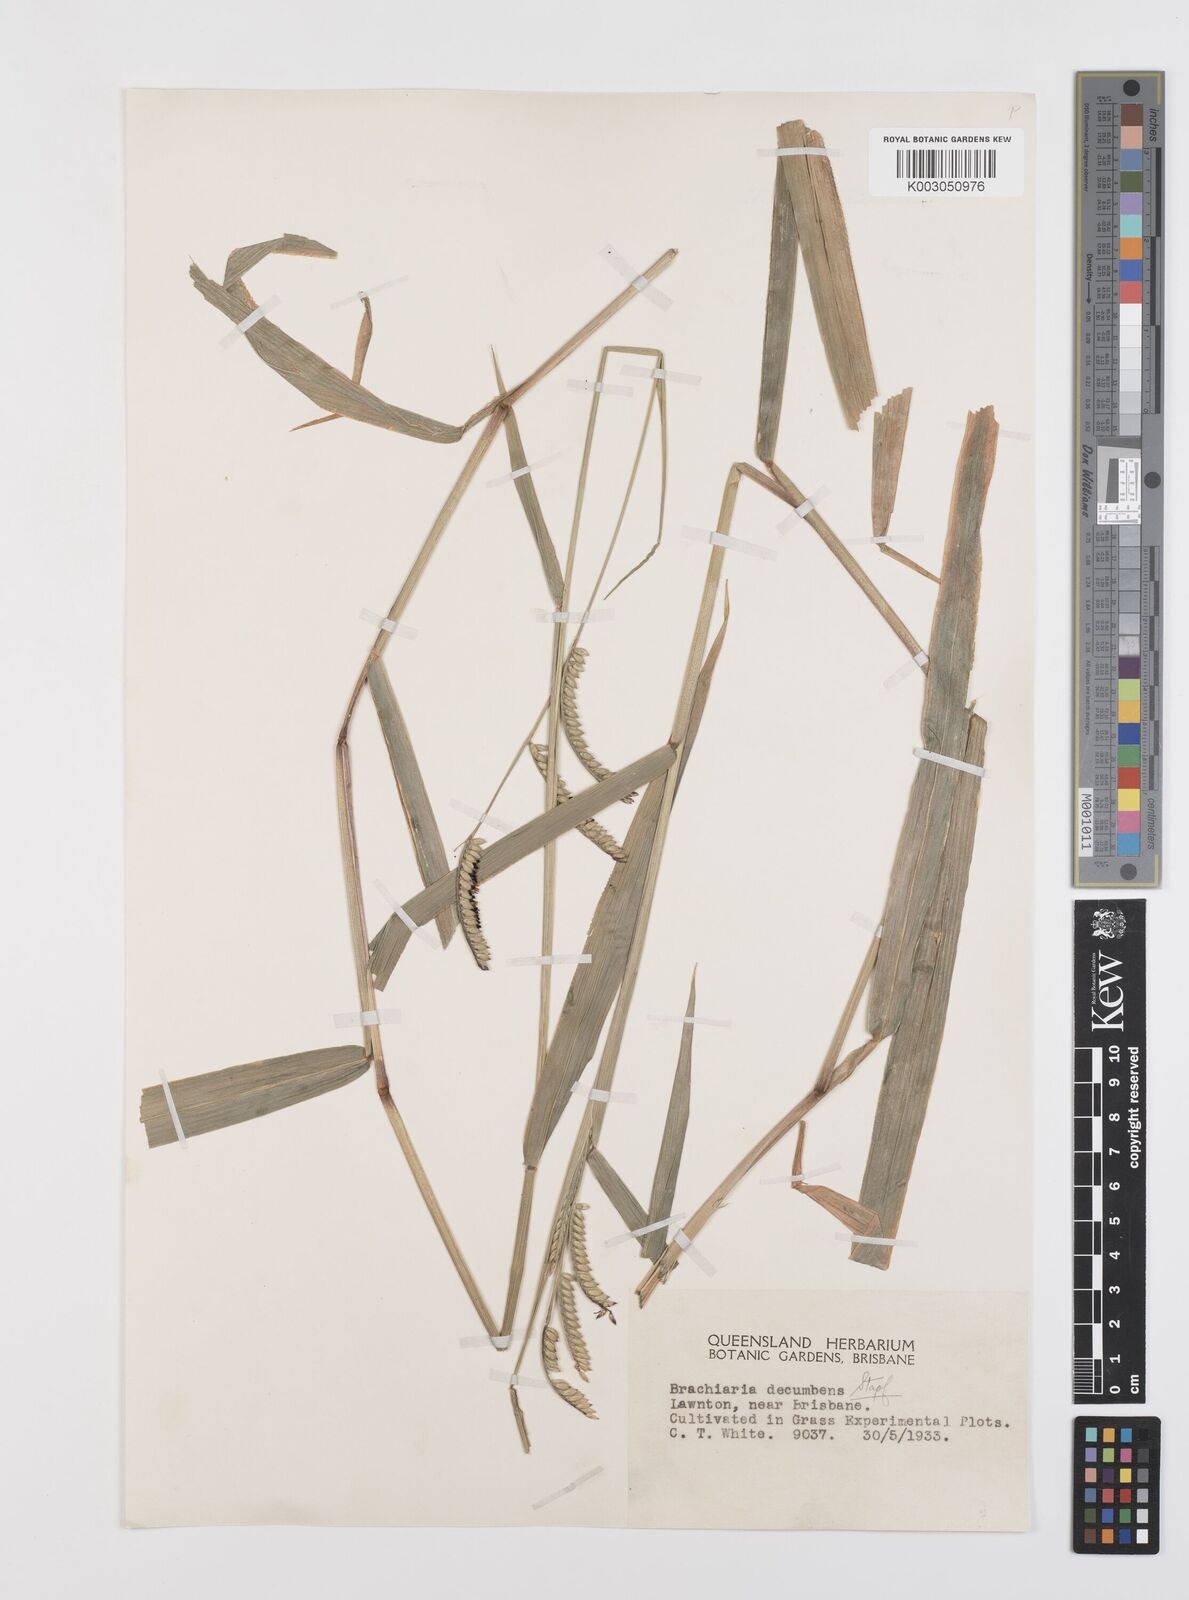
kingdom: Plantae
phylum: Tracheophyta
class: Liliopsida
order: Poales
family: Poaceae
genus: Urochloa
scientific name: Urochloa eminii
